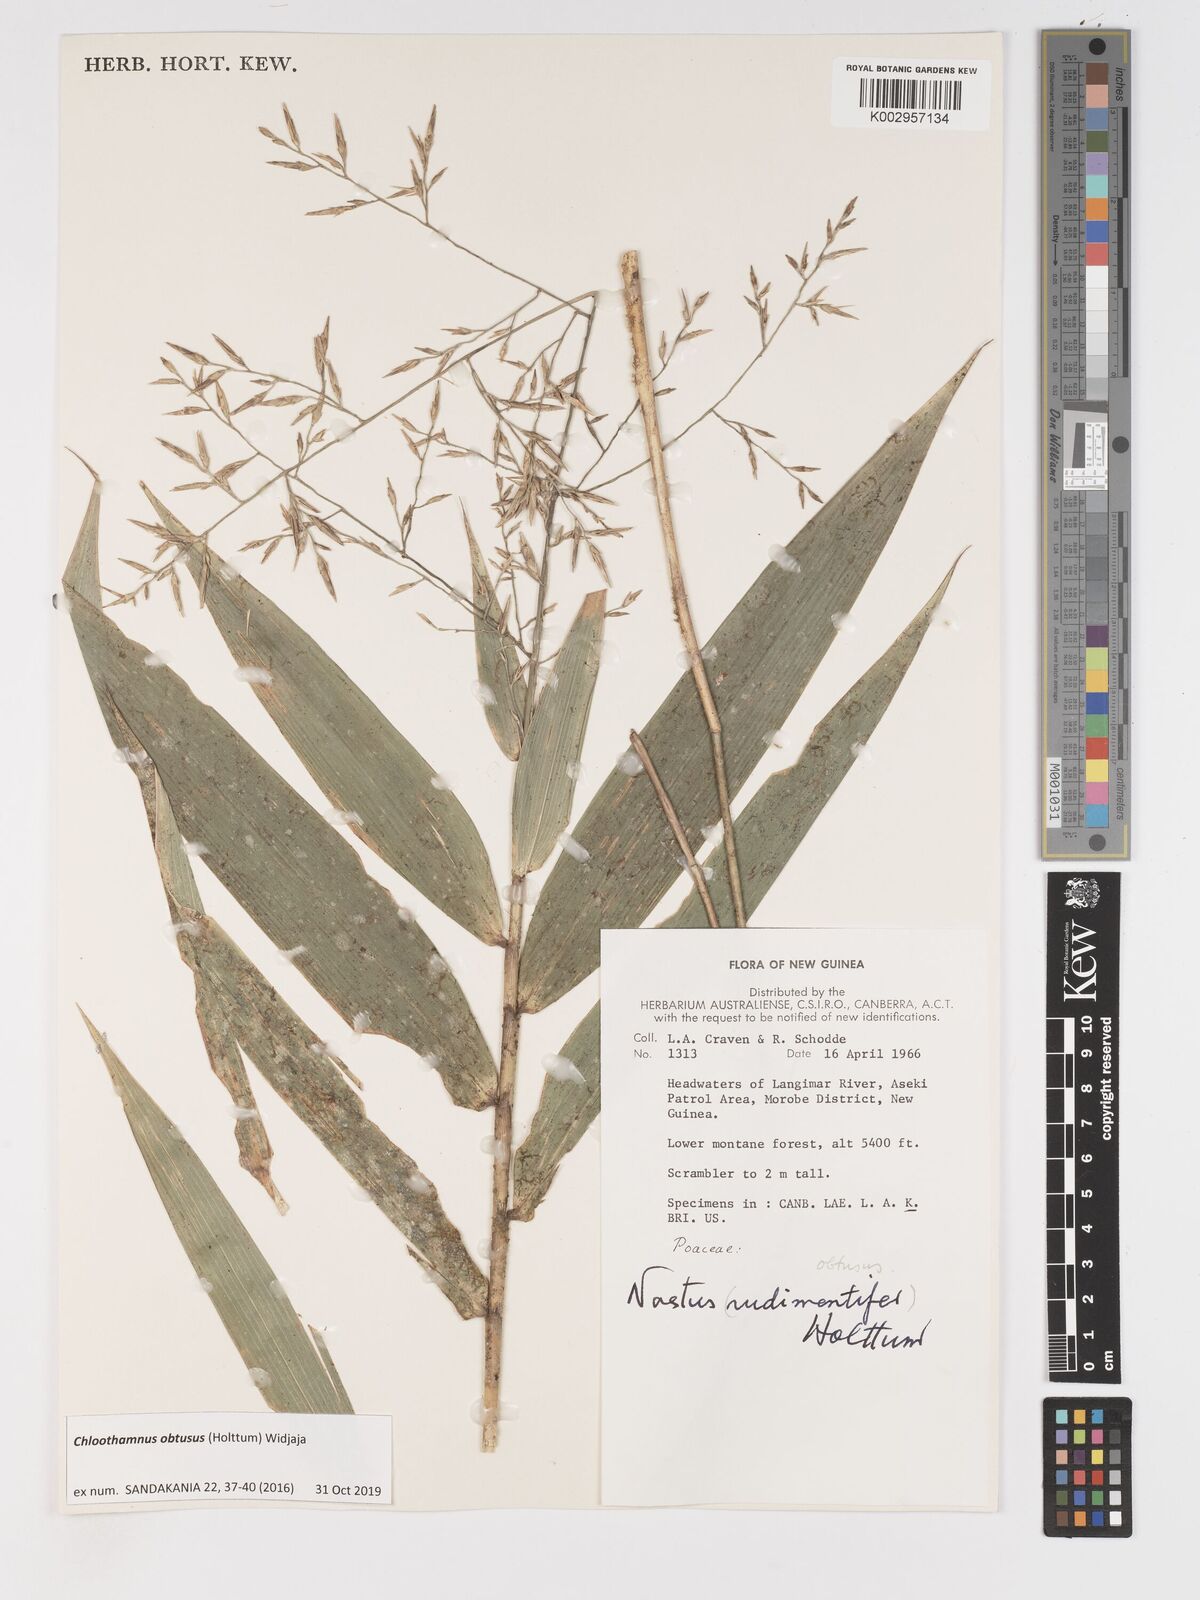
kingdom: Plantae
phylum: Tracheophyta
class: Liliopsida
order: Poales
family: Poaceae
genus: Chloothamnus
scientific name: Chloothamnus obtusus
